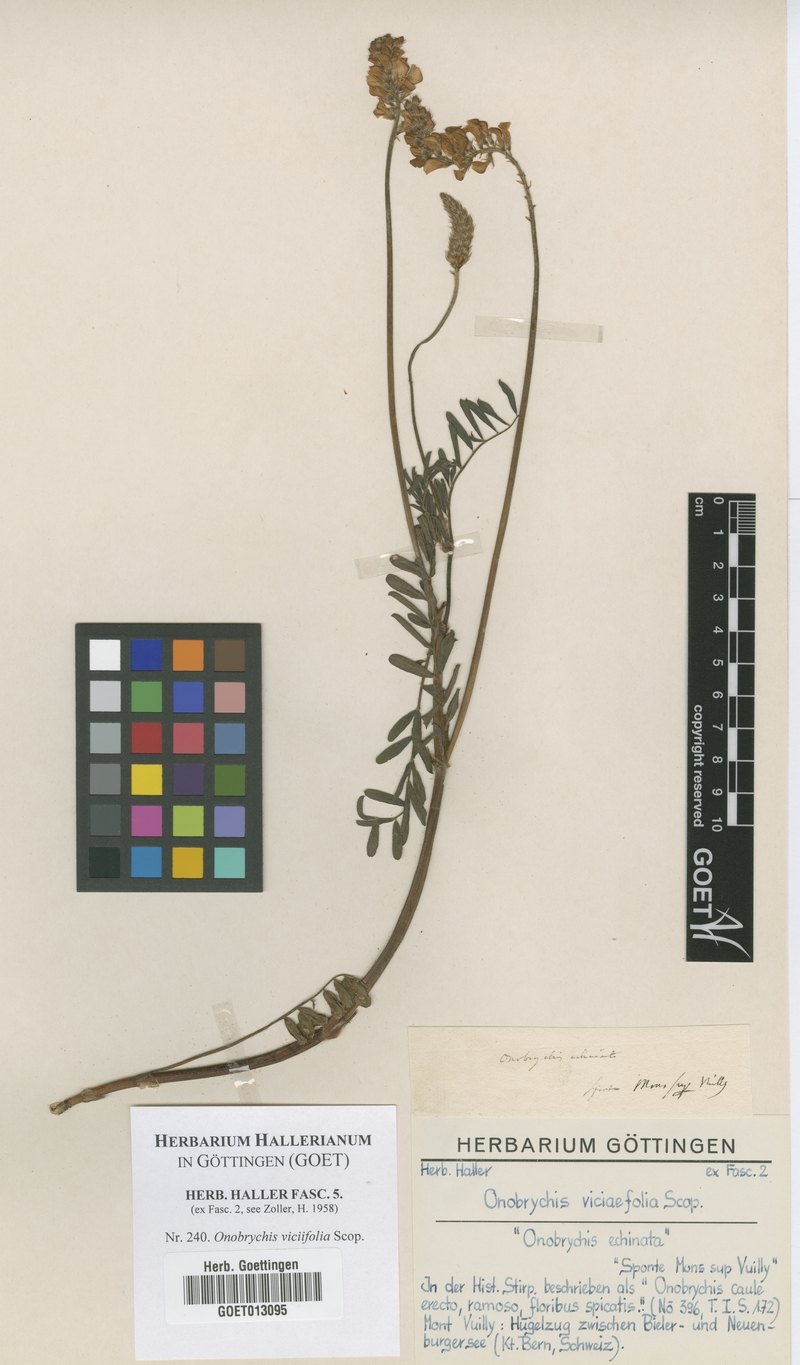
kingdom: Plantae
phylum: Tracheophyta
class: Magnoliopsida
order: Fabales
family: Fabaceae
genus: Onobrychis
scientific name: Onobrychis viciifolia
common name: Sainfoin
